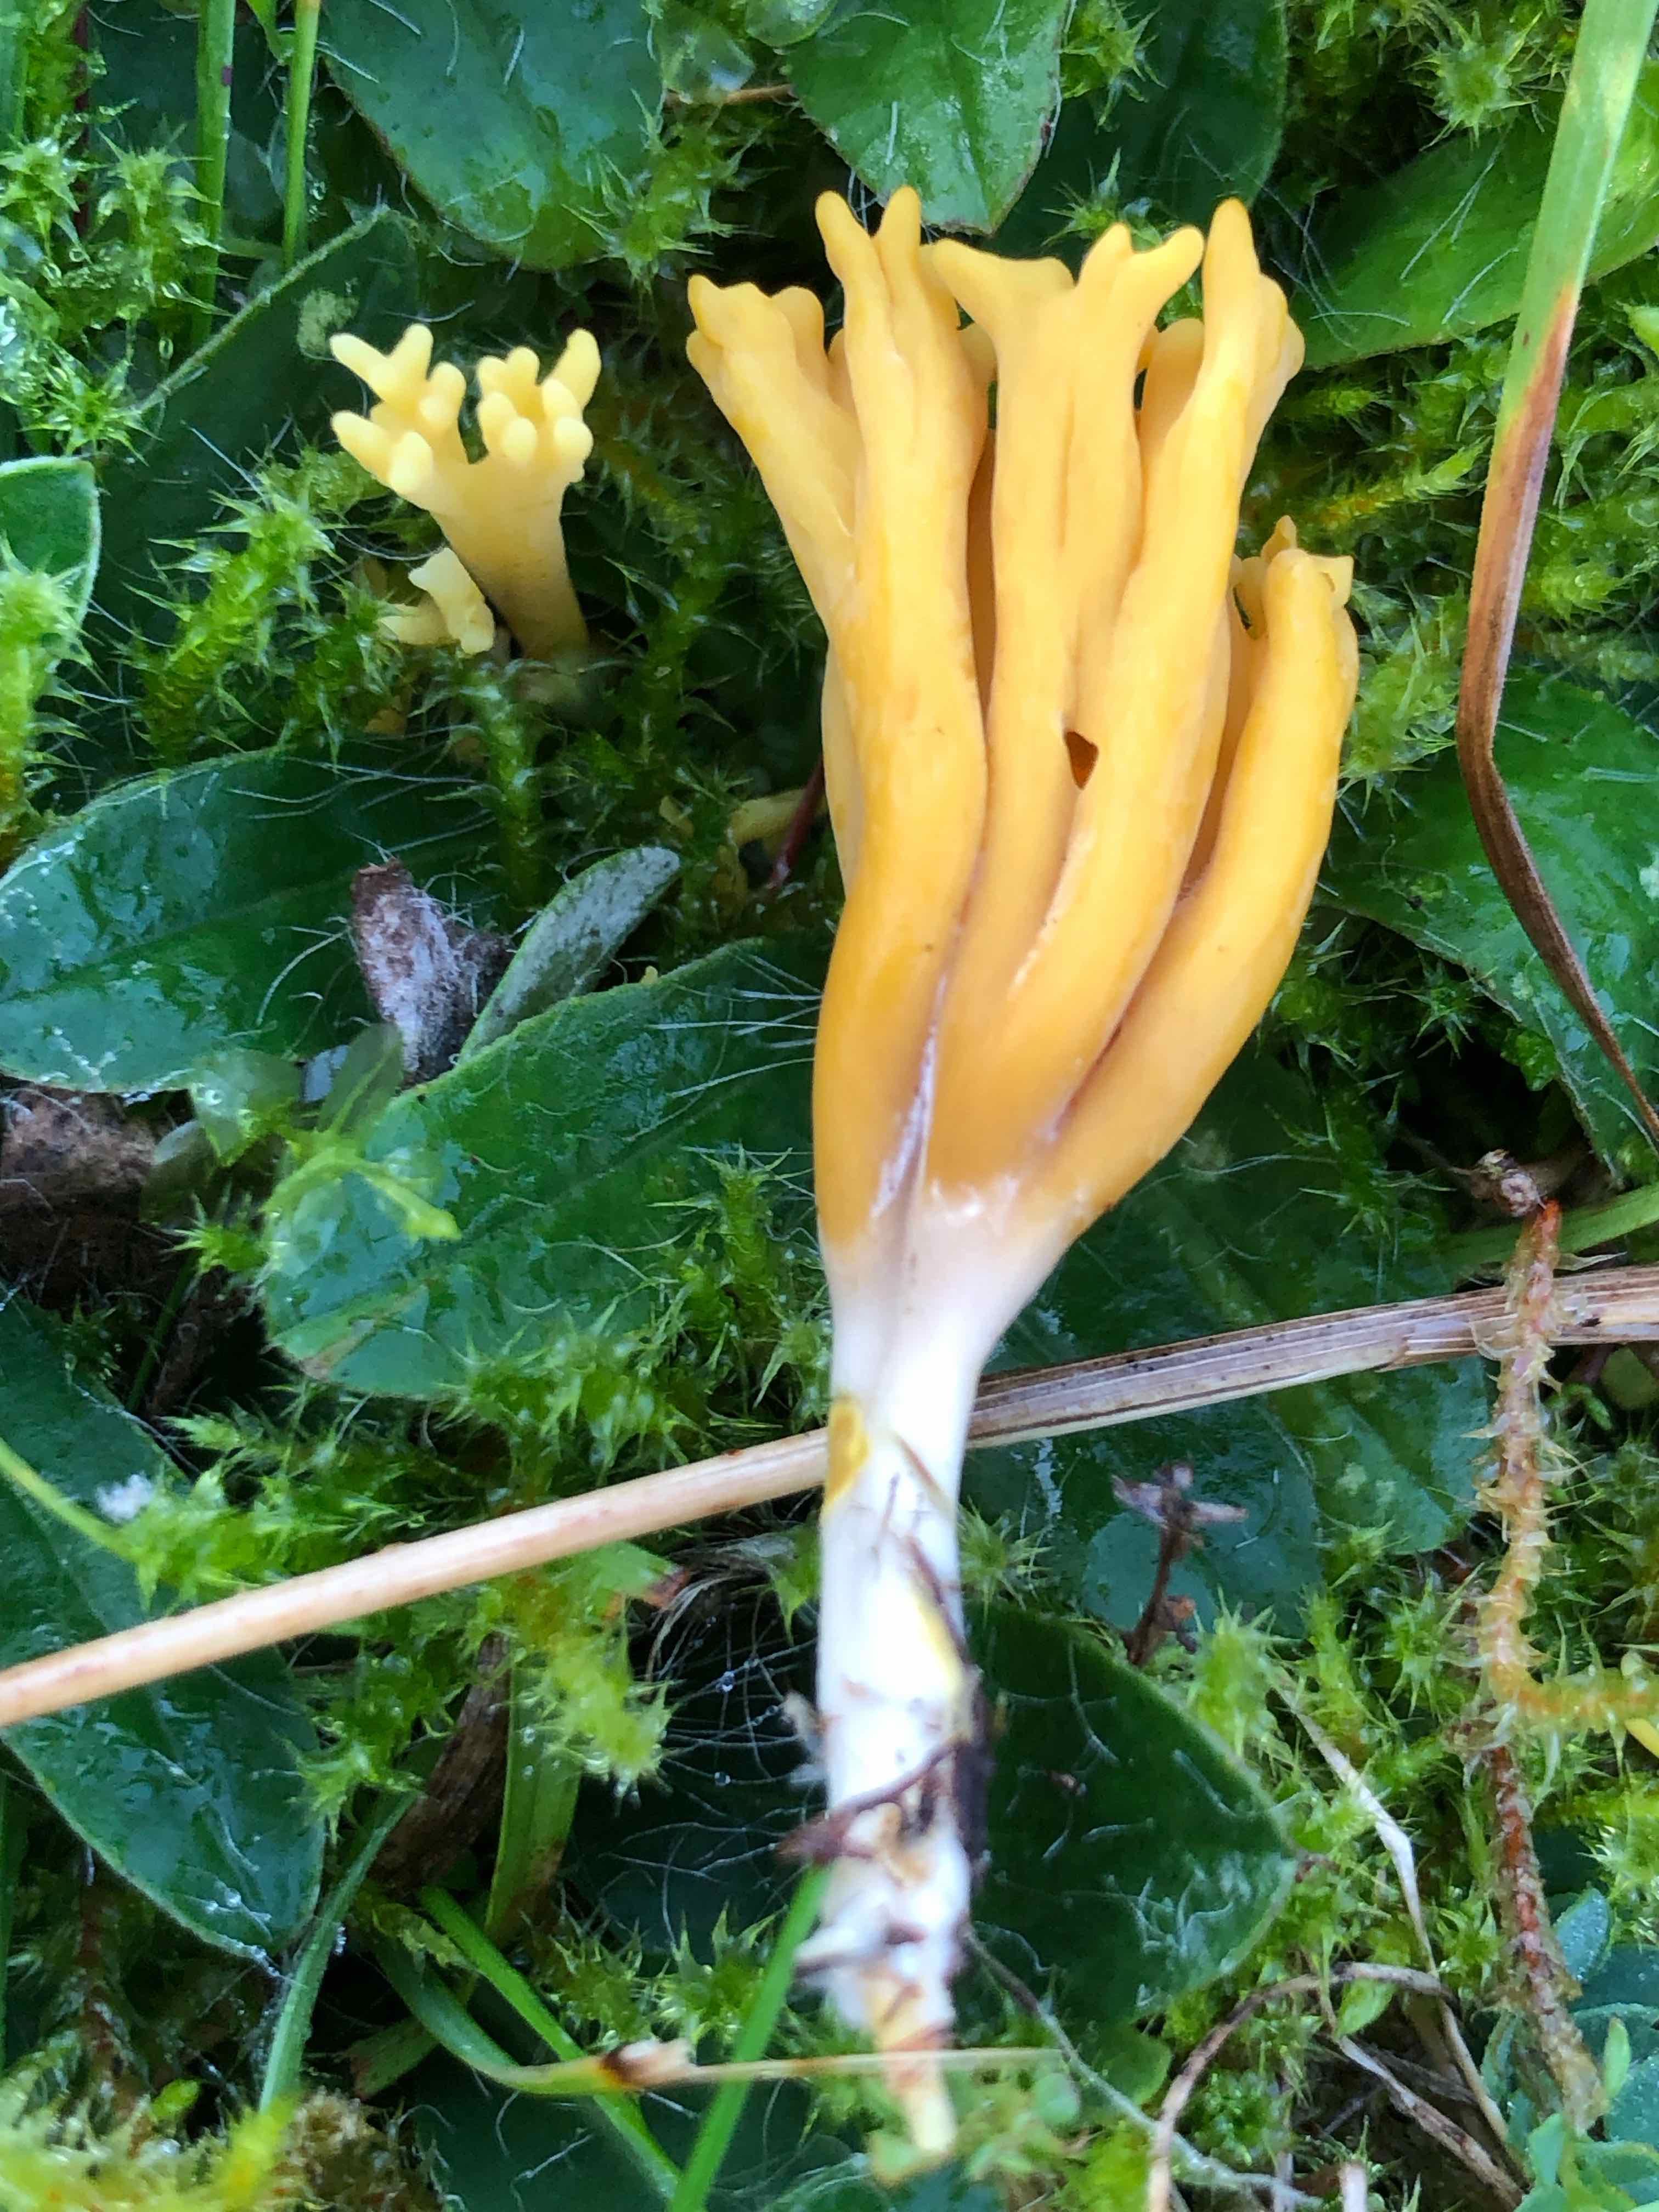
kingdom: Fungi
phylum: Basidiomycota
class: Agaricomycetes
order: Agaricales
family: Clavariaceae
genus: Clavulinopsis
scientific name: Clavulinopsis corniculata
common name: eng-køllesvamp
